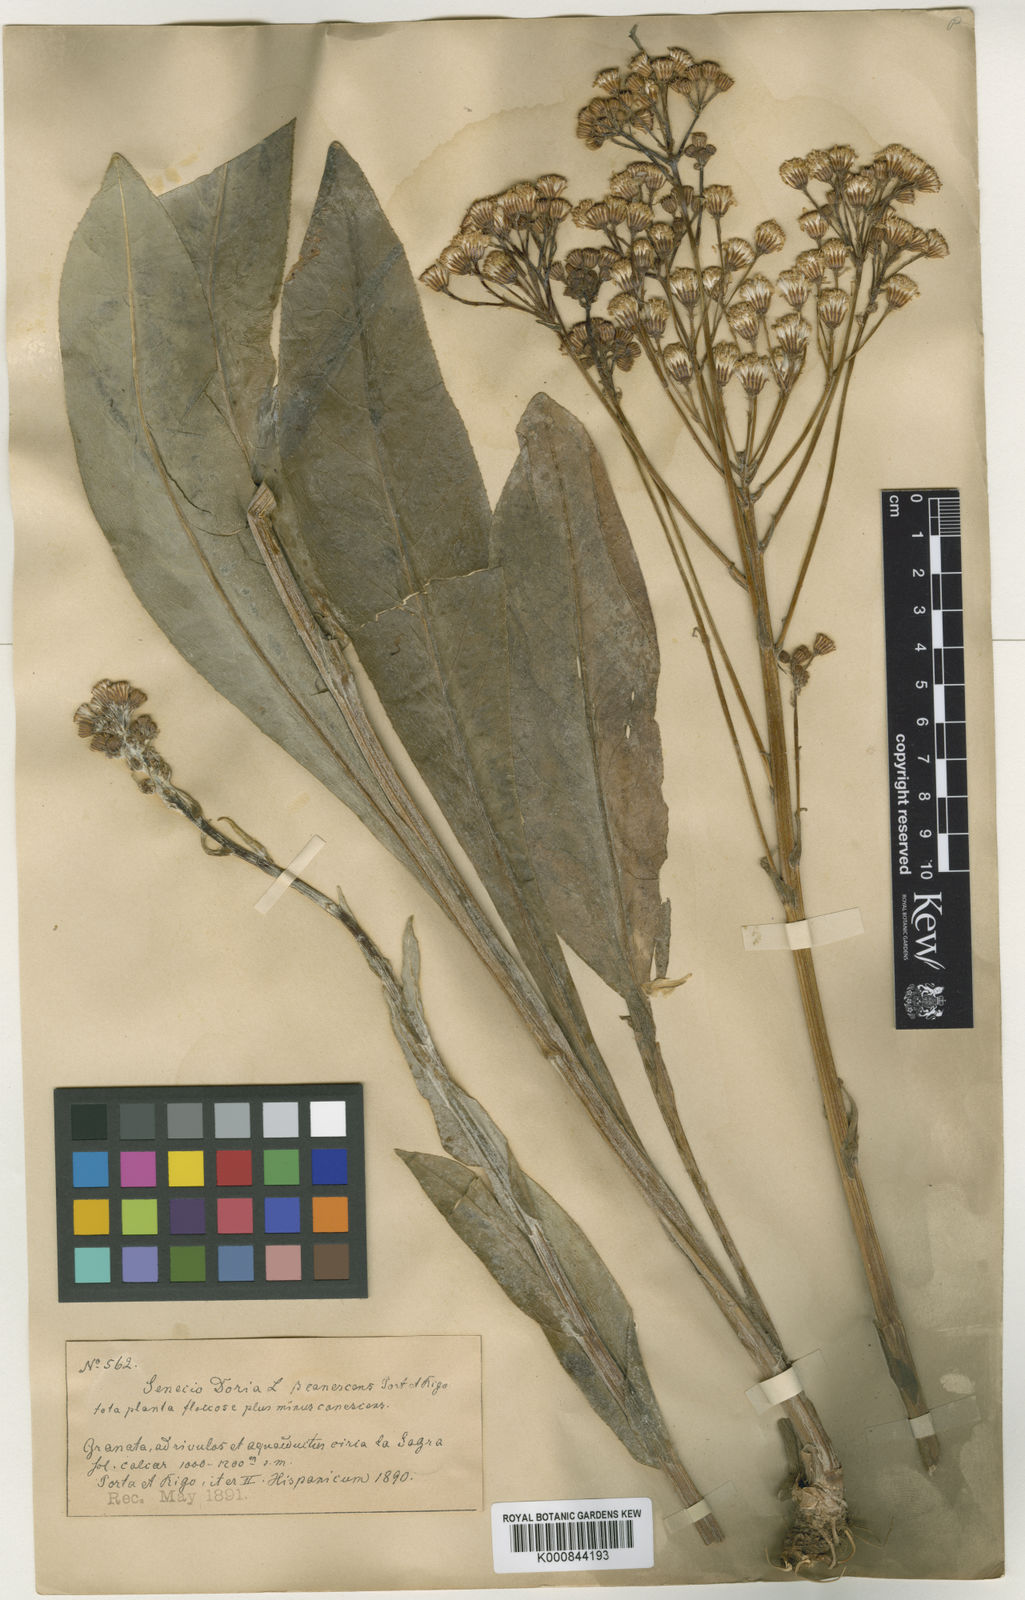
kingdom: Plantae
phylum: Tracheophyta
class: Magnoliopsida
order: Asterales
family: Asteraceae
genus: Senecio
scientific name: Senecio doria
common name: Golden ragwort
